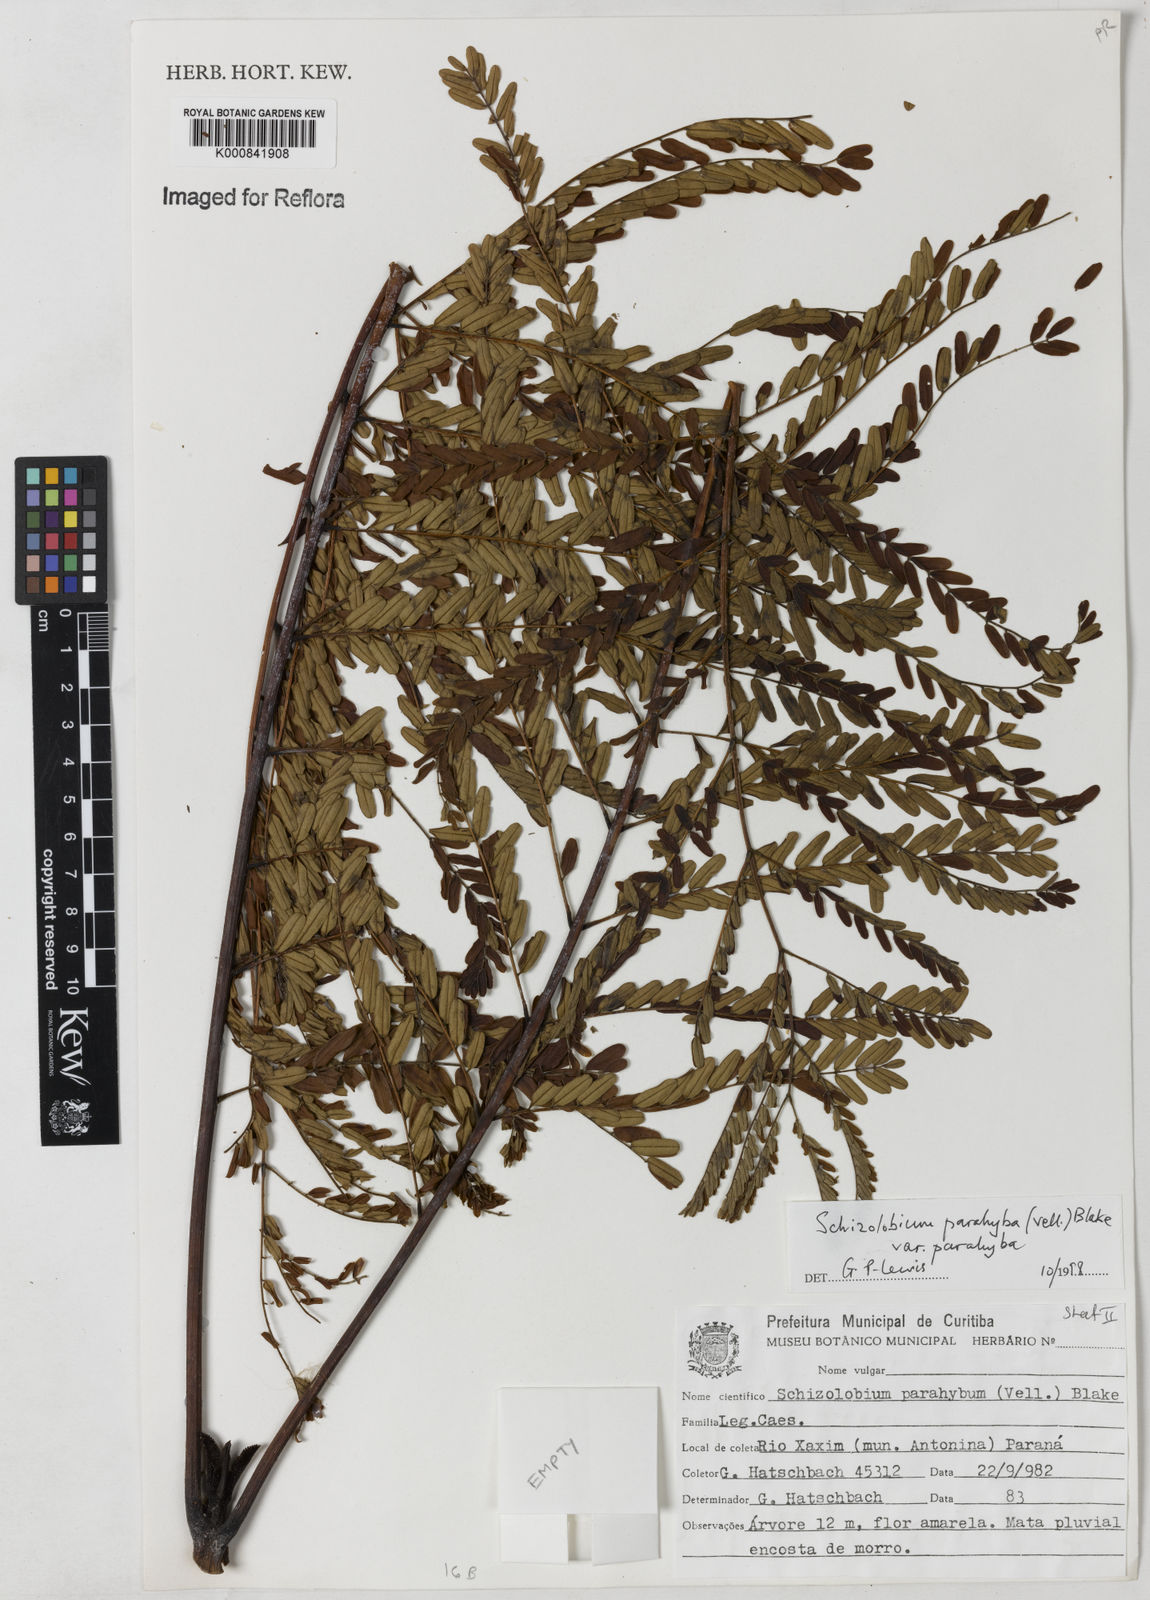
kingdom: Plantae
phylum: Tracheophyta
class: Magnoliopsida
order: Fabales
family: Fabaceae
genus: Schizolobium
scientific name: Schizolobium parahyba
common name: Brazilian firetree
